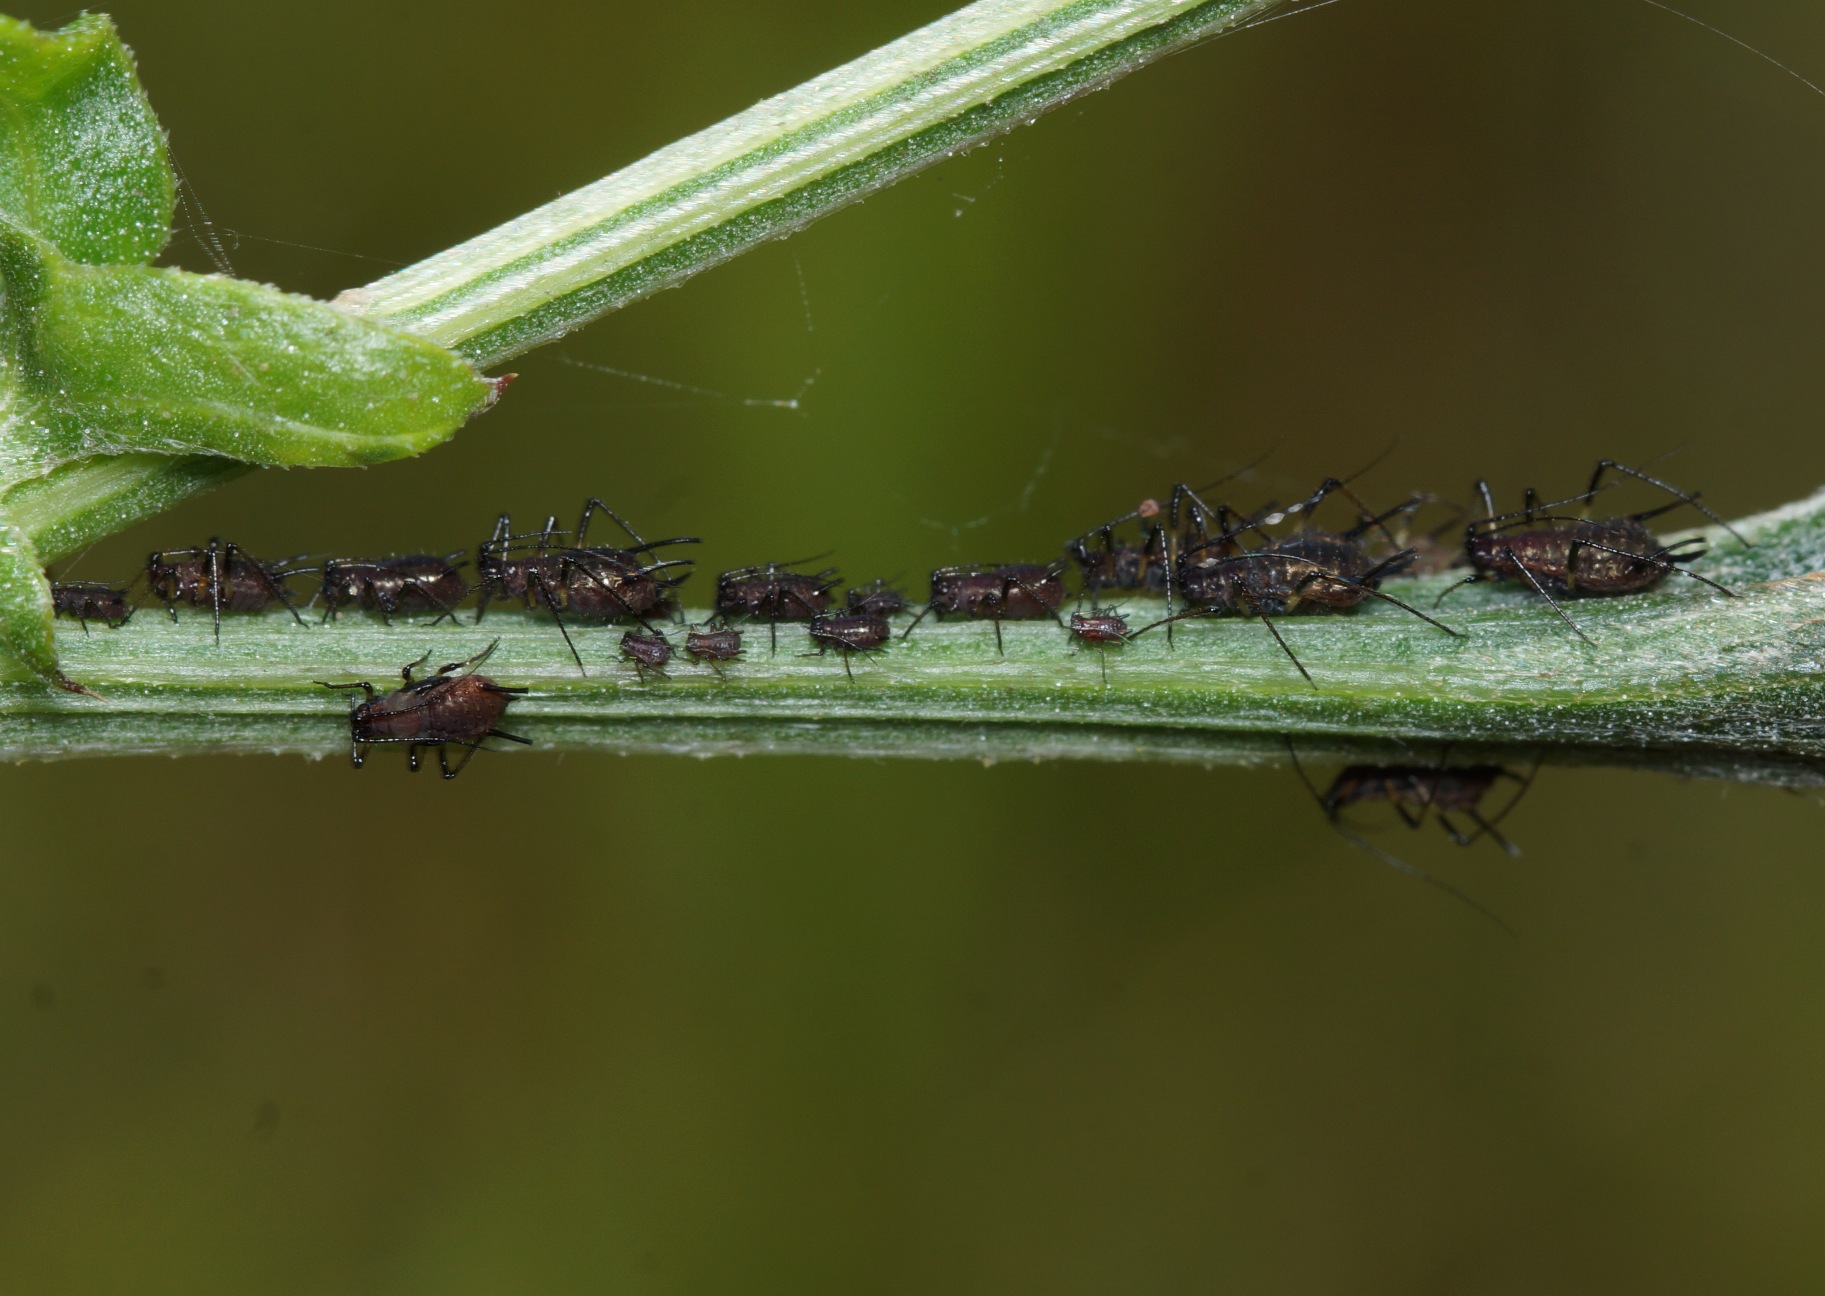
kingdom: Animalia
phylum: Arthropoda
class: Insecta
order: Hemiptera
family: Aphididae
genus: Uroleucon
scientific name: Uroleucon jaceae
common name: Brun knopurtbladlus
